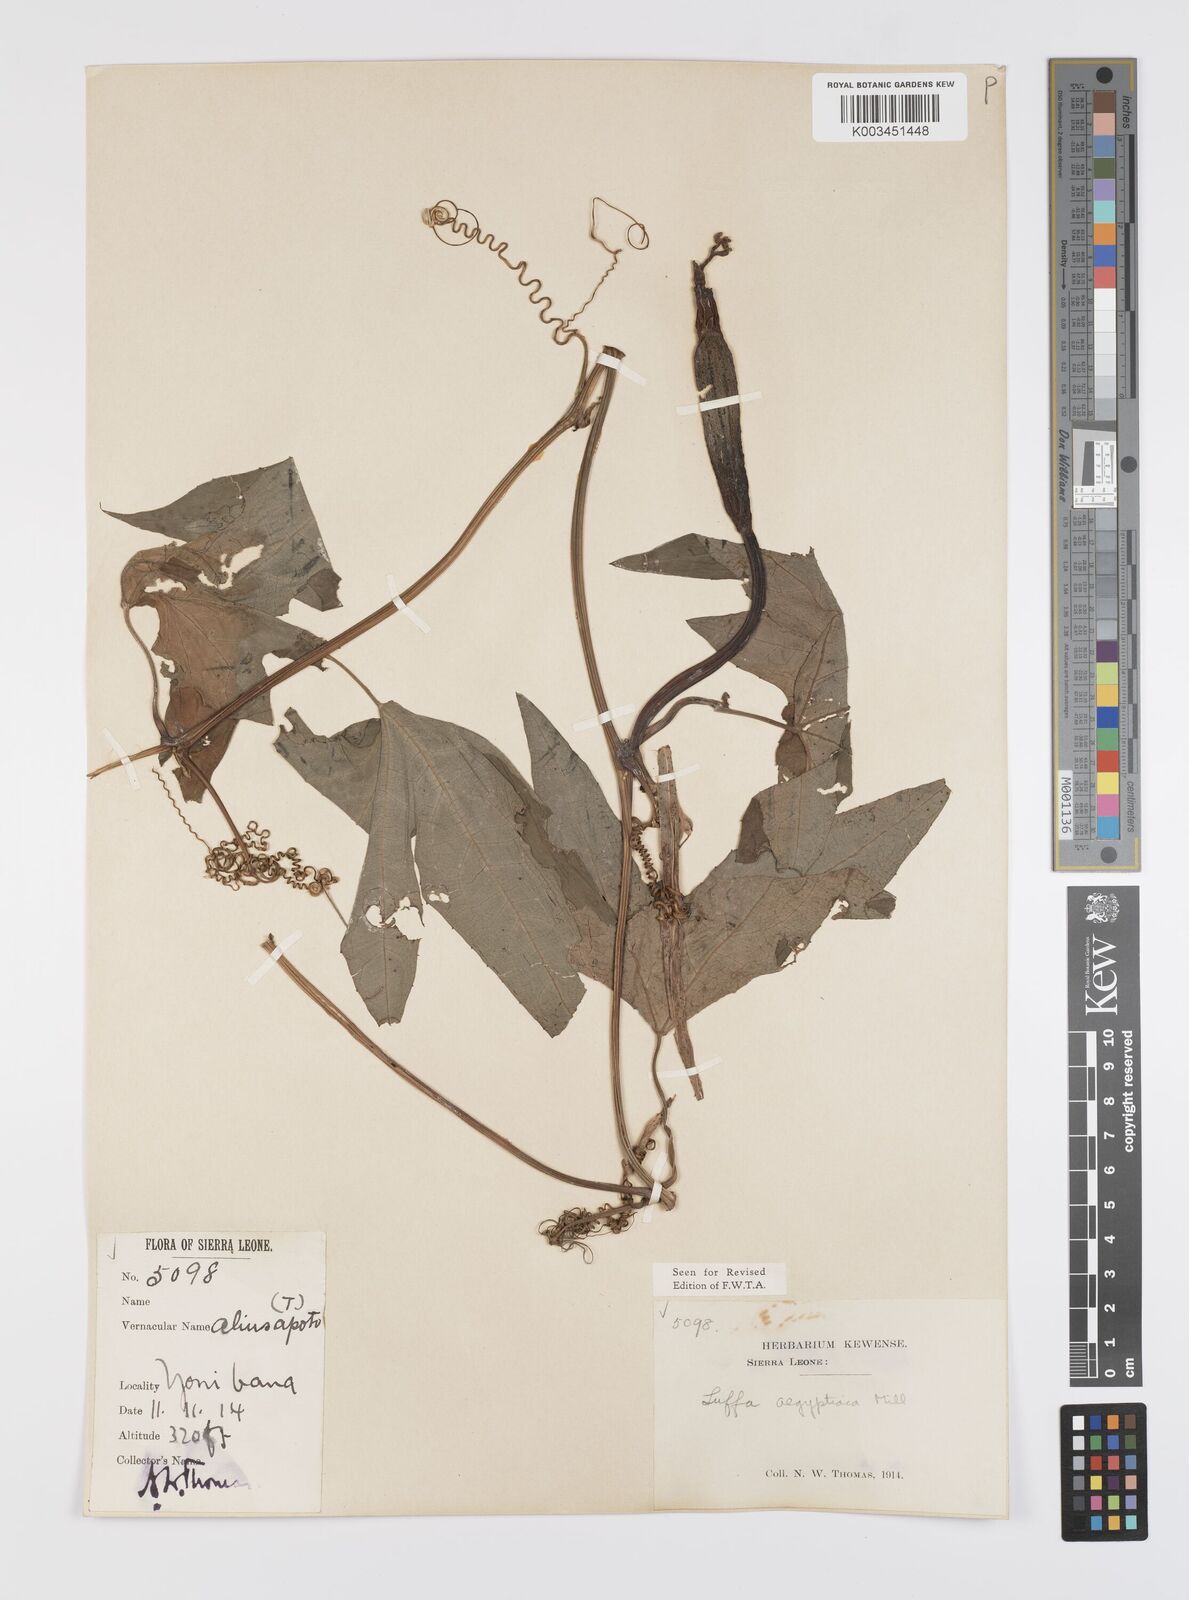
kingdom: Plantae
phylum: Tracheophyta
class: Magnoliopsida
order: Cucurbitales
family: Cucurbitaceae
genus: Luffa
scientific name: Luffa aegyptiaca
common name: Sponge gourd
